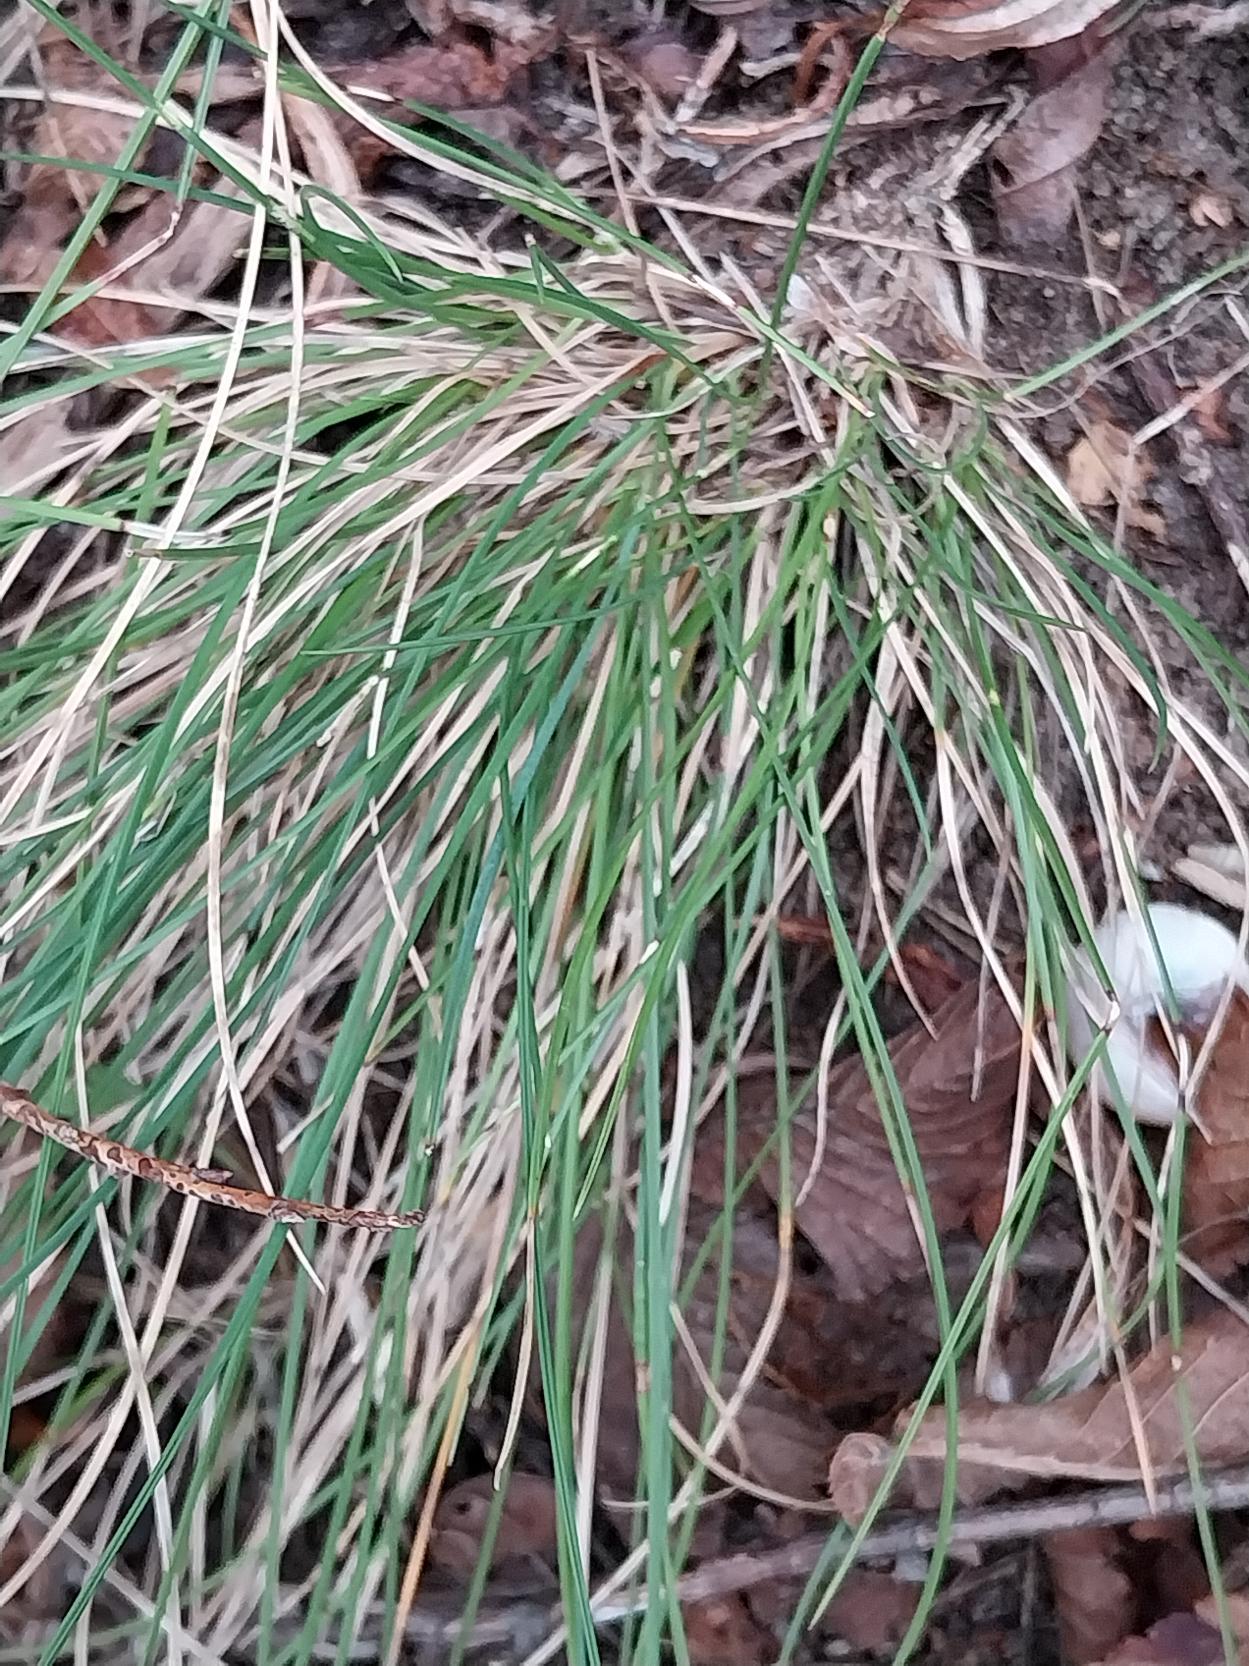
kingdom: Plantae
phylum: Tracheophyta
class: Liliopsida
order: Poales
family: Poaceae
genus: Festuca
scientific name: Festuca trachyphylla
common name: Bakke-svingel
